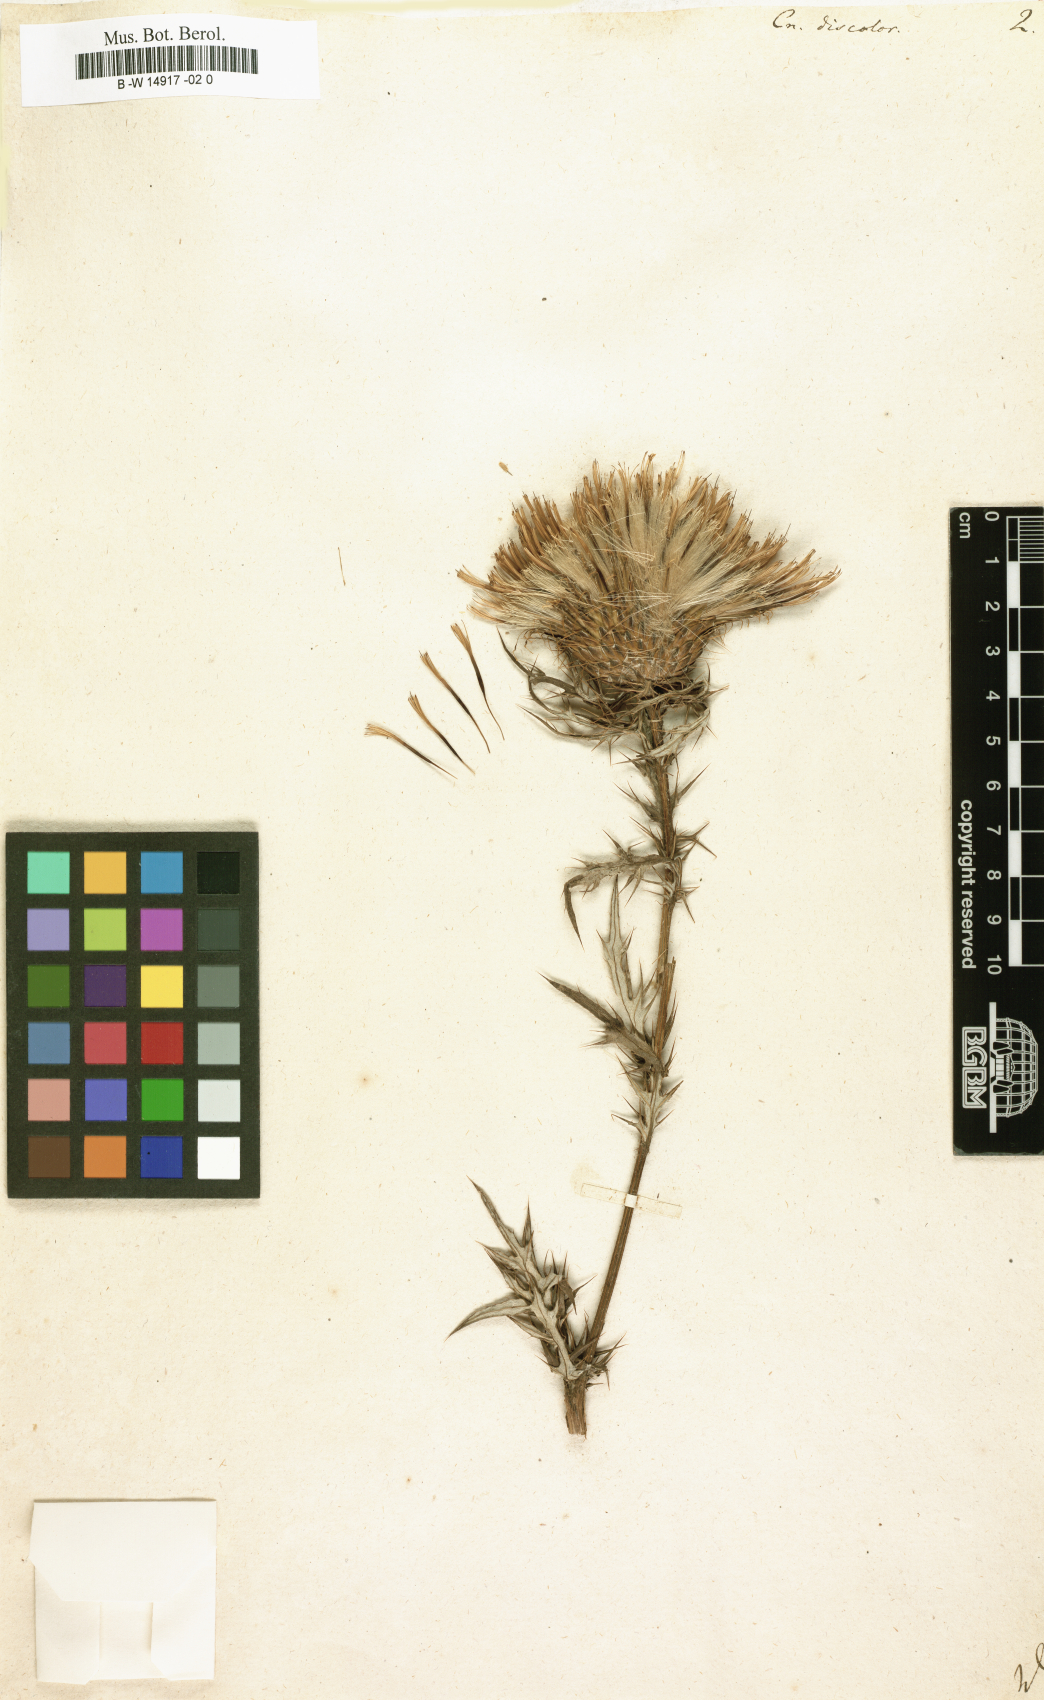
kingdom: Plantae
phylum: Tracheophyta
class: Magnoliopsida
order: Asterales
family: Asteraceae
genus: Cirsium
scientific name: Cirsium Cnicus discolor
